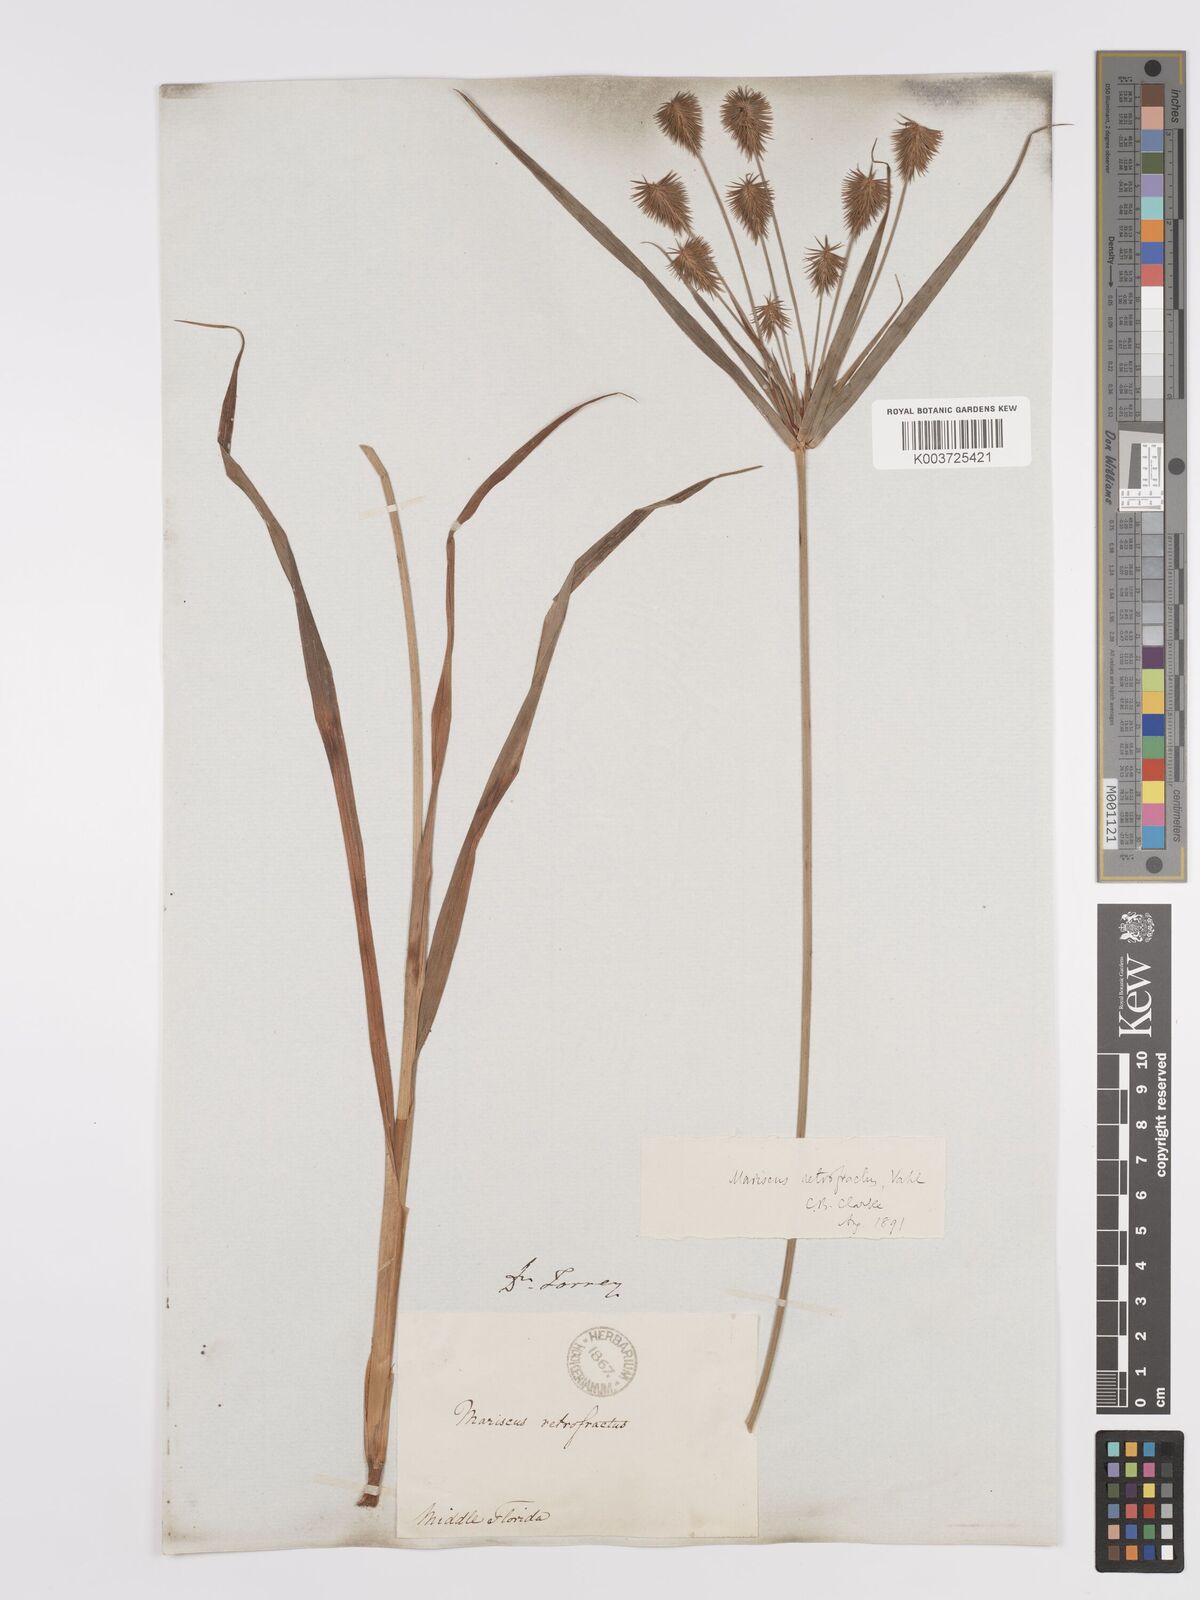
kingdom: Plantae
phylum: Tracheophyta
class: Liliopsida
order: Poales
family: Cyperaceae
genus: Cyperus
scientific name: Cyperus retrofractus
